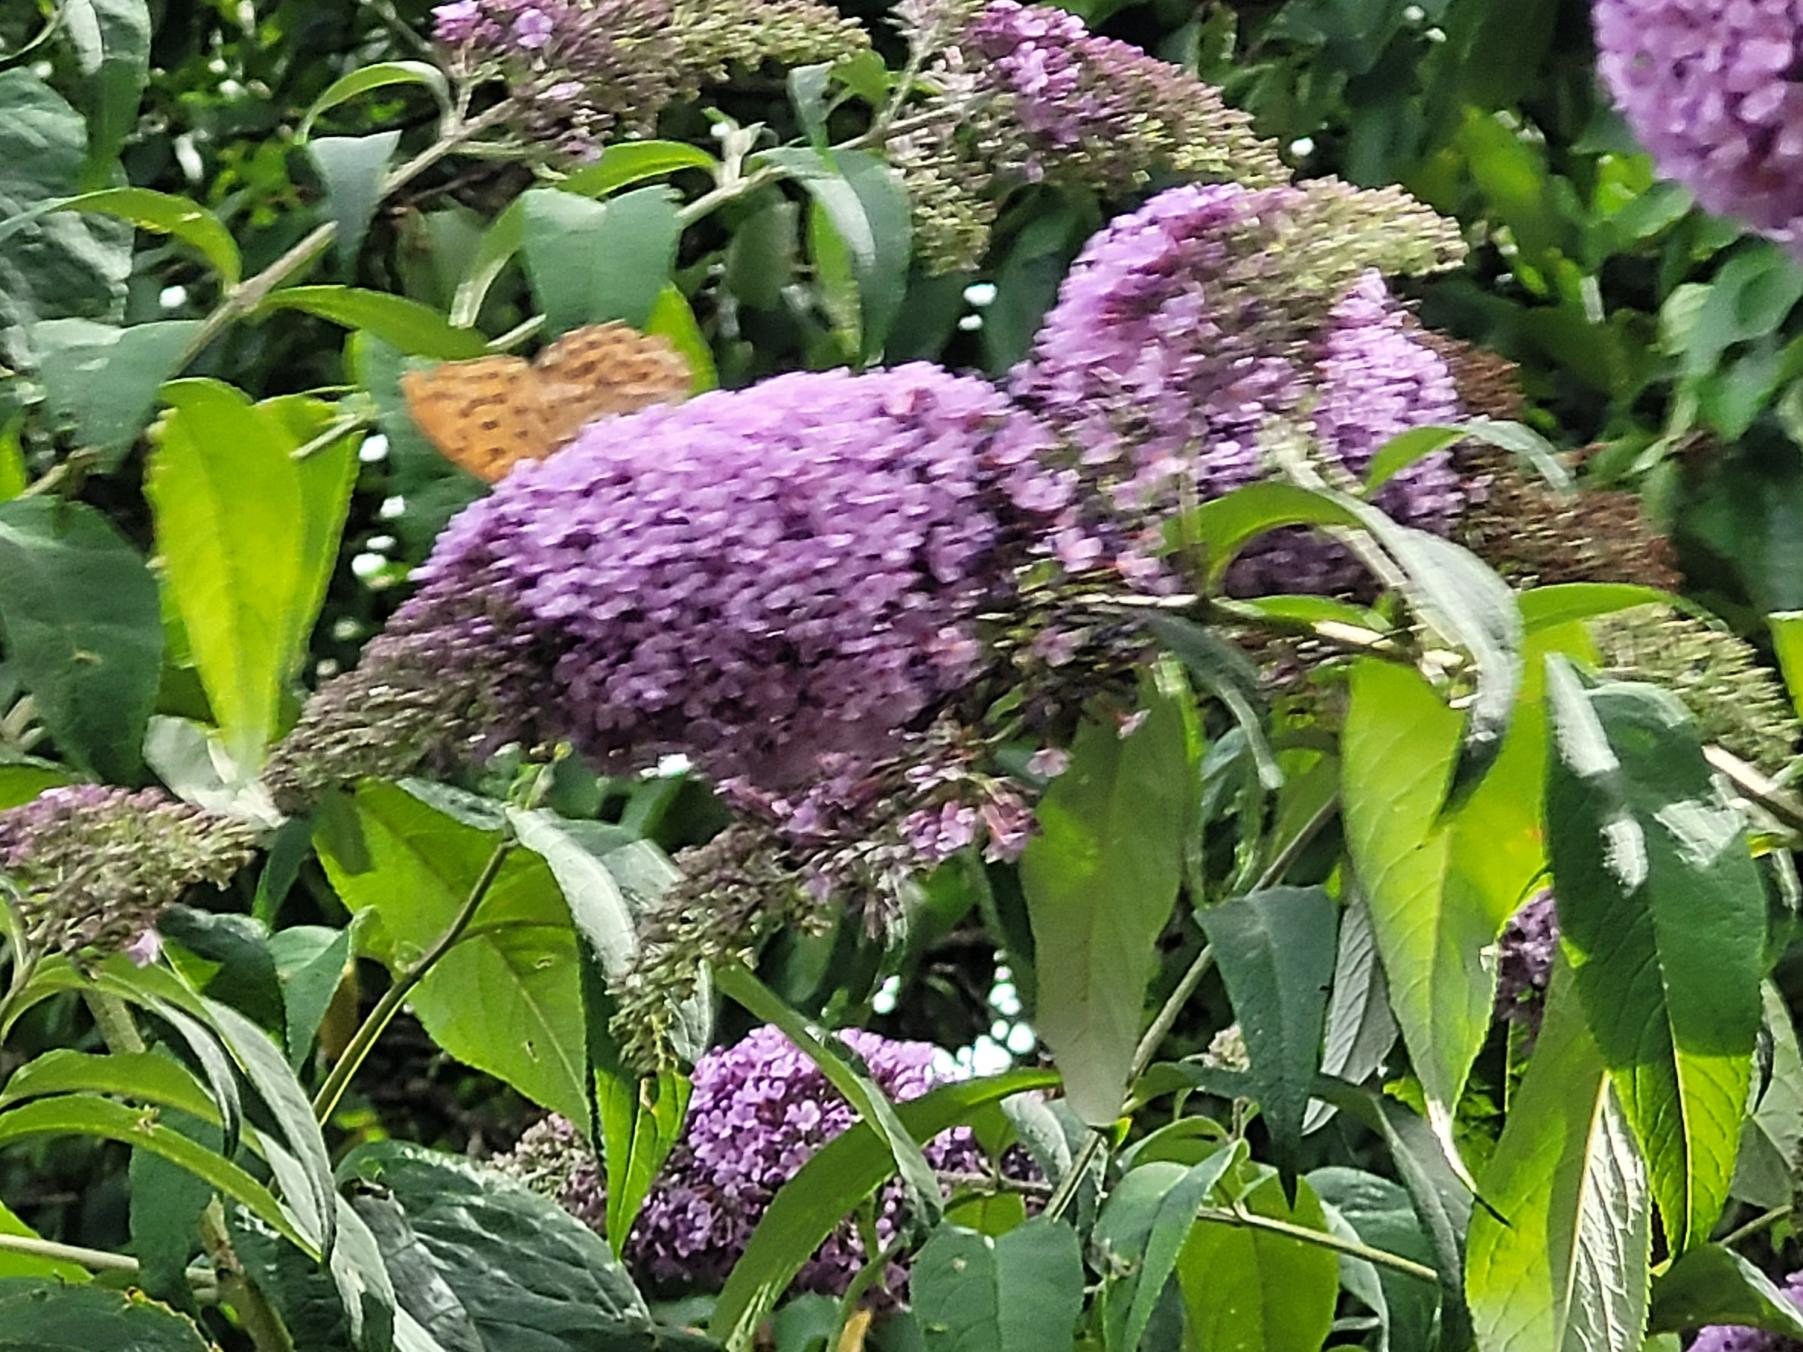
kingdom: Animalia
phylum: Arthropoda
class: Insecta
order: Lepidoptera
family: Nymphalidae
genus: Argynnis
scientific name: Argynnis paphia
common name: Kejserkåbe
